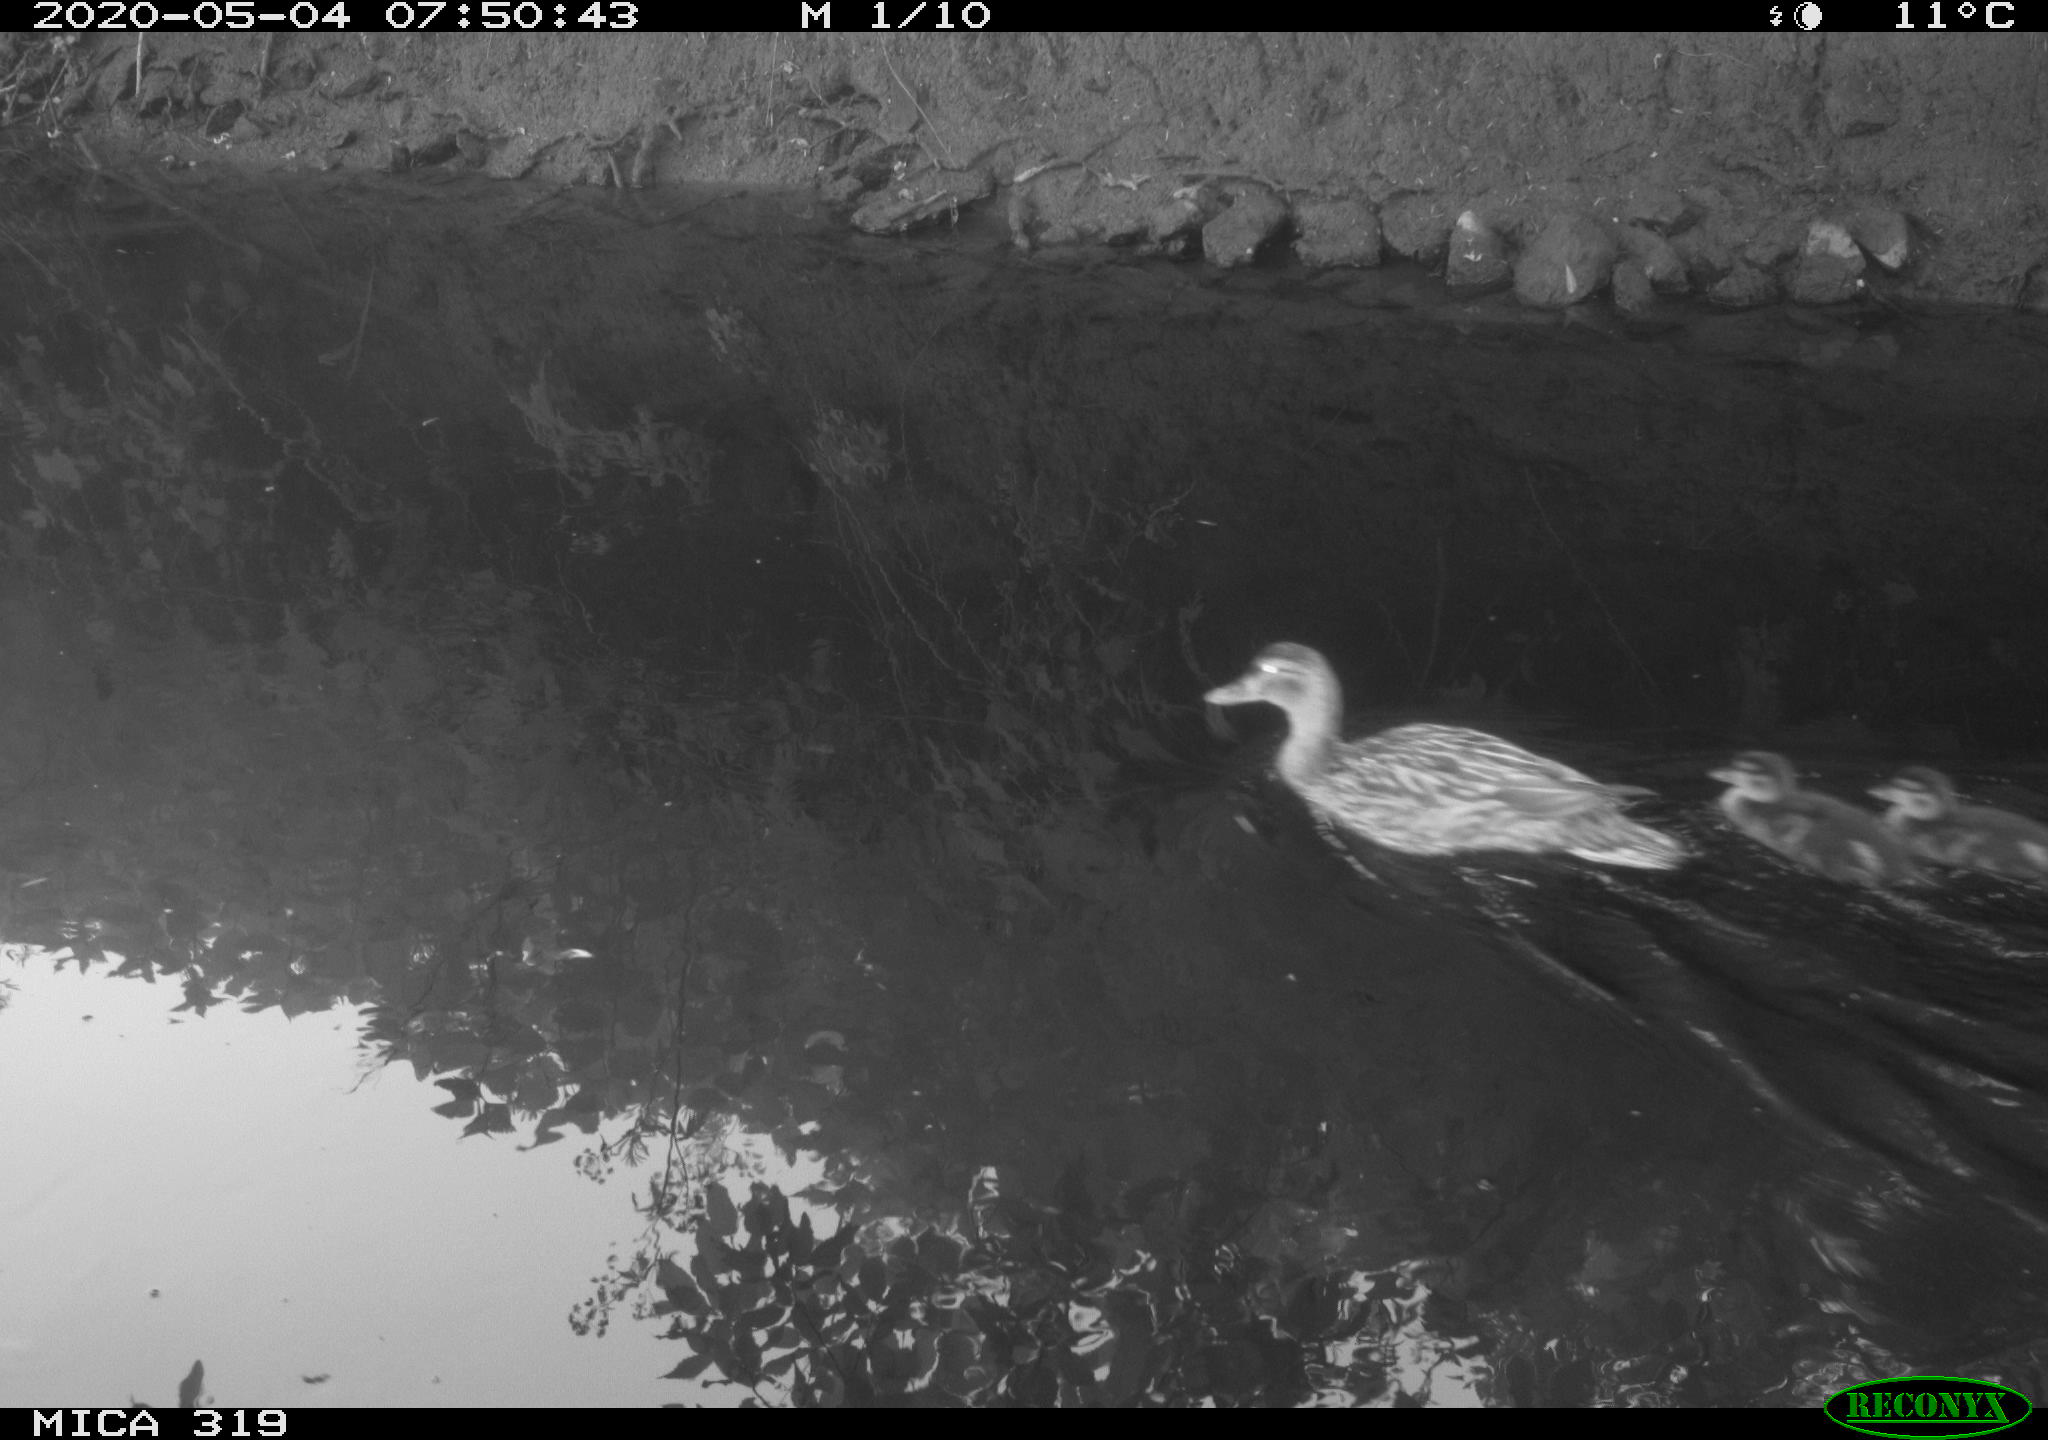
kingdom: Animalia
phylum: Chordata
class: Aves
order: Anseriformes
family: Anatidae
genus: Anas
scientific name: Anas platyrhynchos
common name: Mallard
